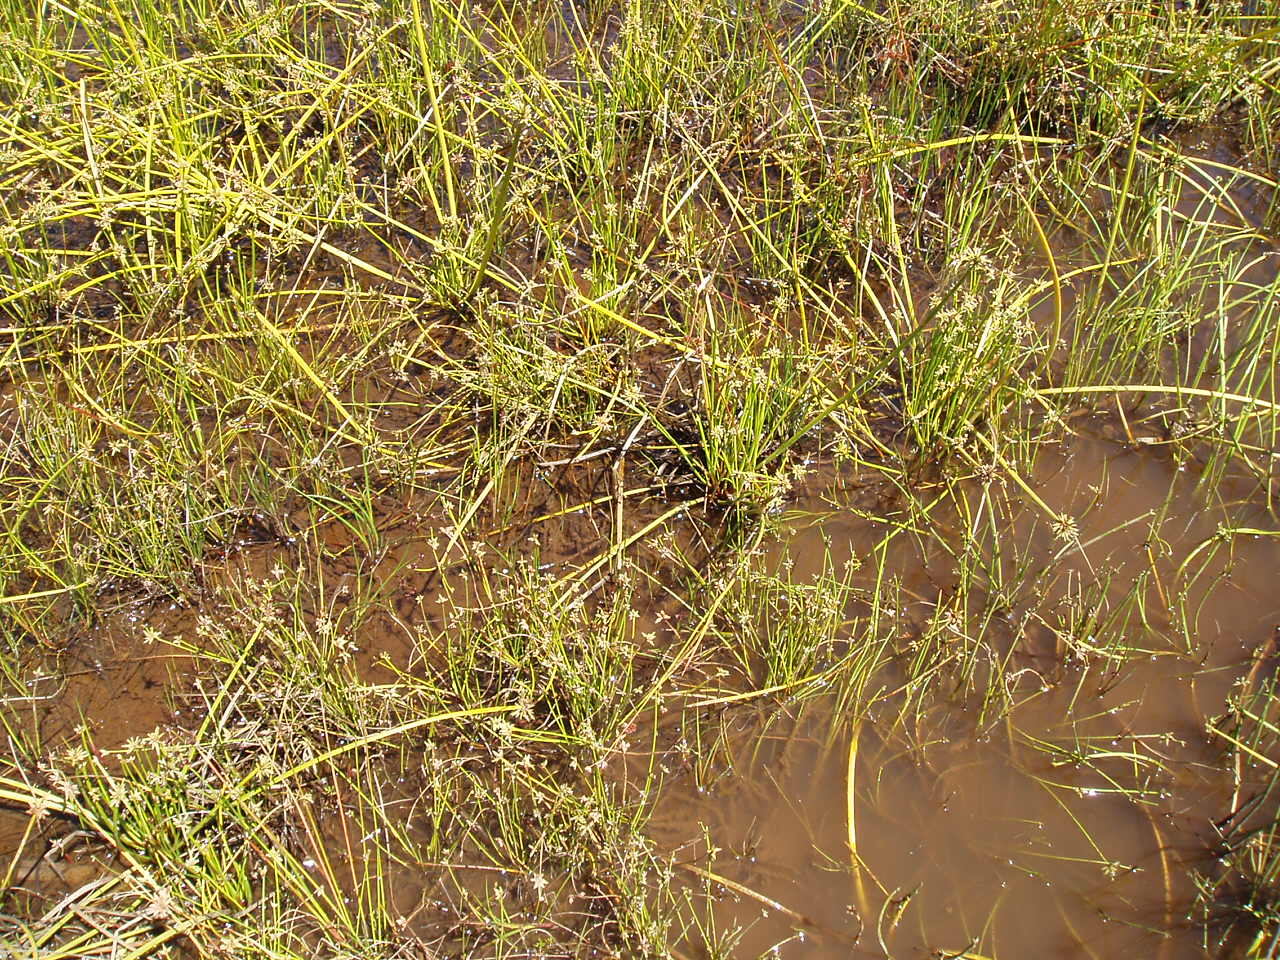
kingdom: Plantae
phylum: Tracheophyta
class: Liliopsida
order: Poales
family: Cyperaceae
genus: Isolepis
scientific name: Isolepis prolifera
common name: Proliferating bulrush
